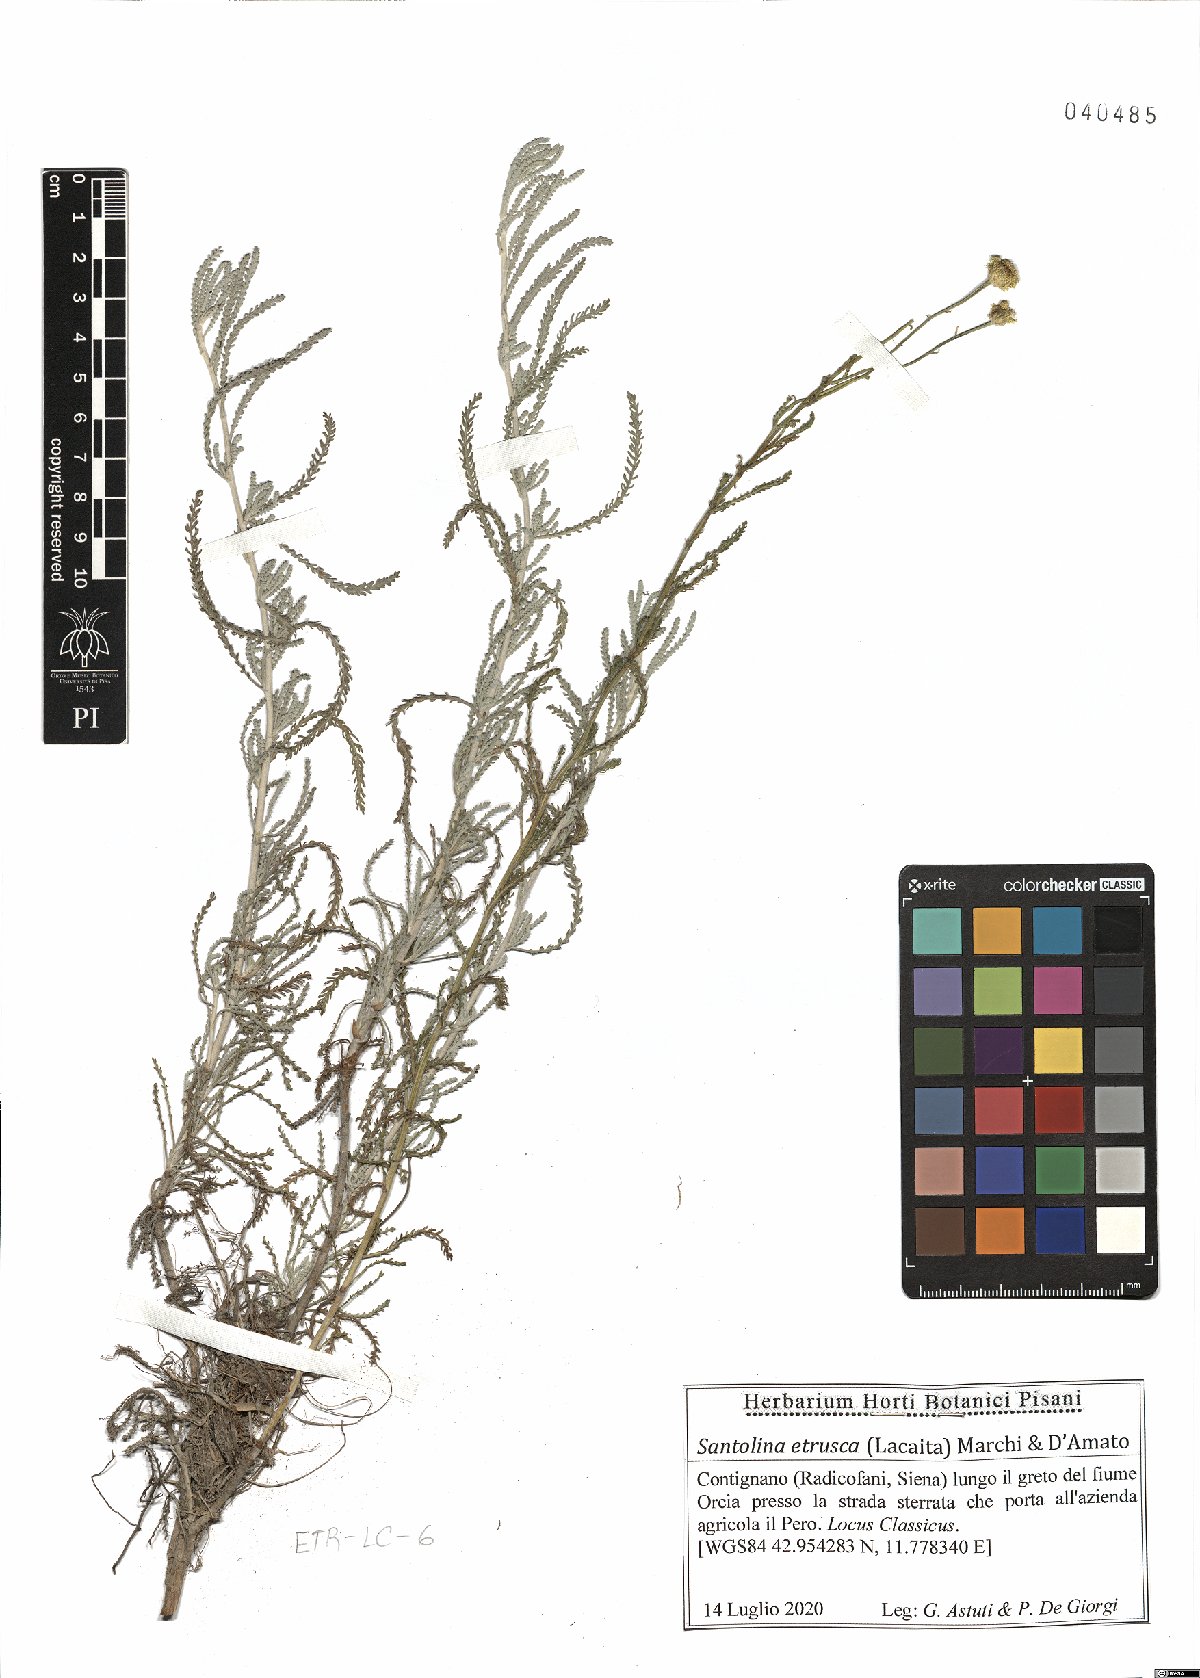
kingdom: Plantae
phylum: Tracheophyta
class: Magnoliopsida
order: Asterales
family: Asteraceae
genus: Santolina
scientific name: Santolina etrusca
